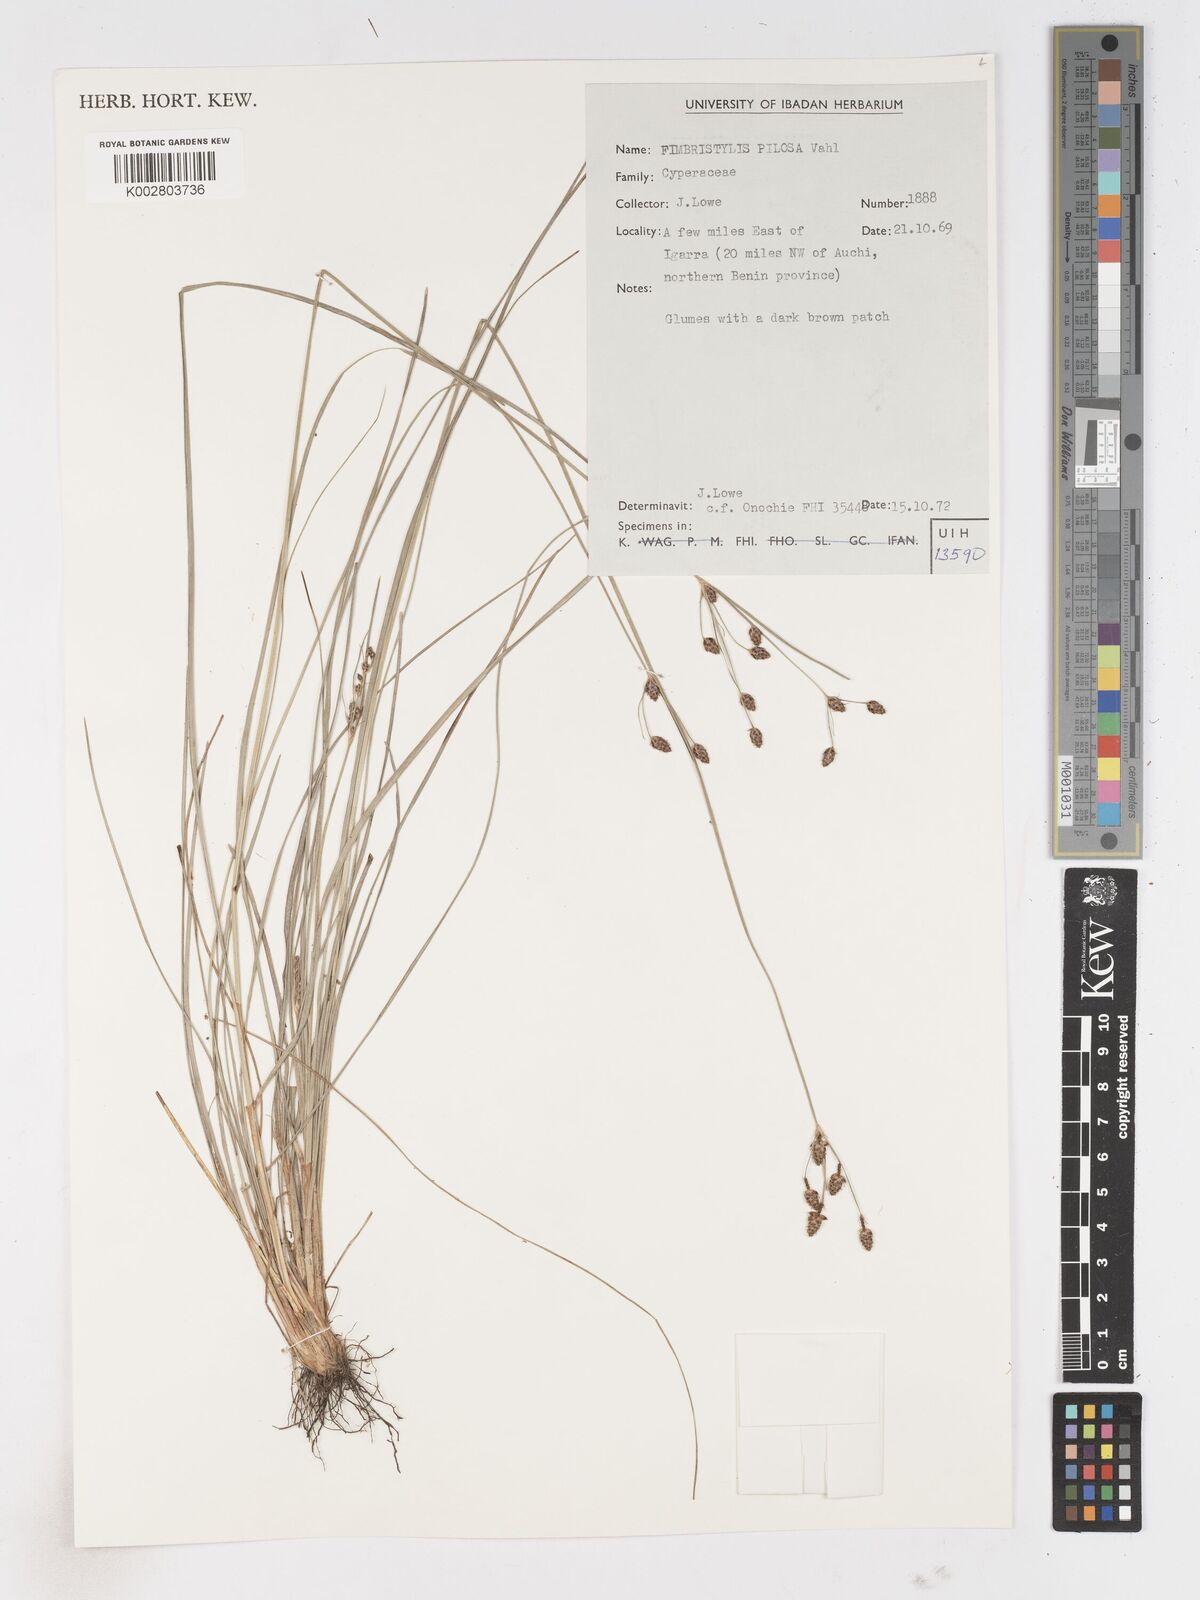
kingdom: Plantae
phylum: Tracheophyta
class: Liliopsida
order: Poales
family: Cyperaceae
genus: Fimbristylis
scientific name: Fimbristylis pilosa
